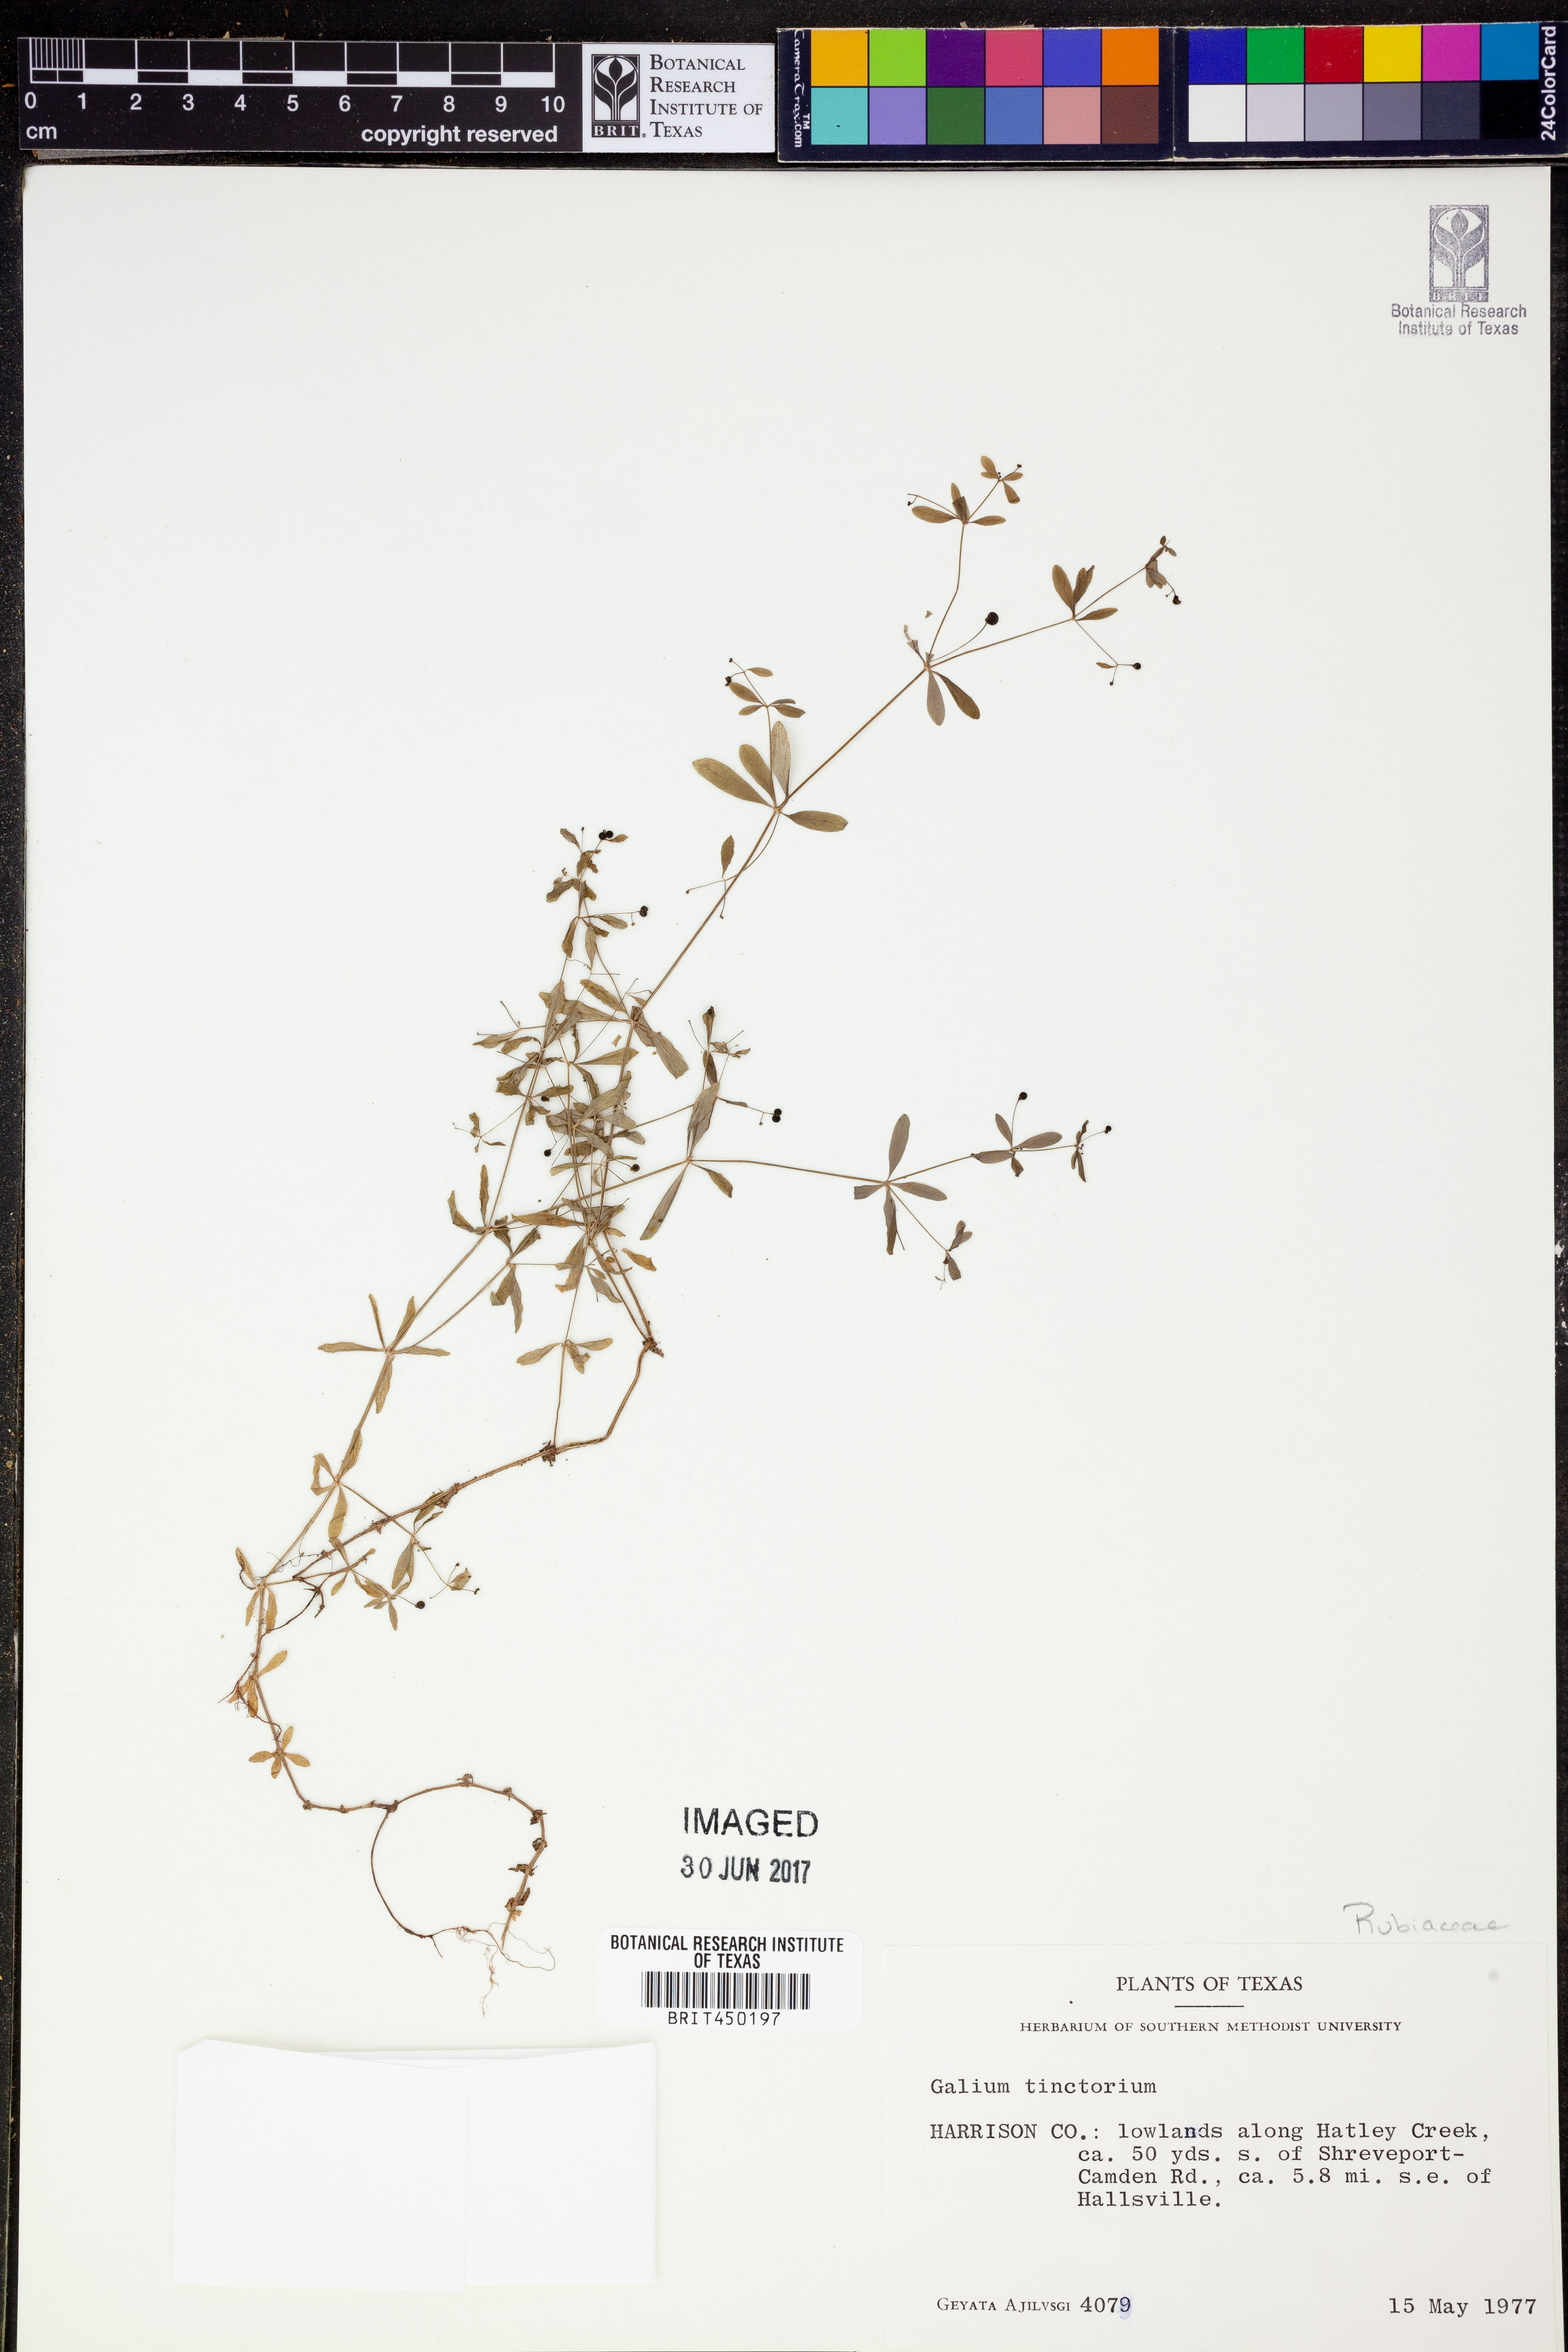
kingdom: Plantae
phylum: Tracheophyta
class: Magnoliopsida
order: Gentianales
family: Rubiaceae
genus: Asperula
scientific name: Asperula tinctoria
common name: Dyer's woodruff
